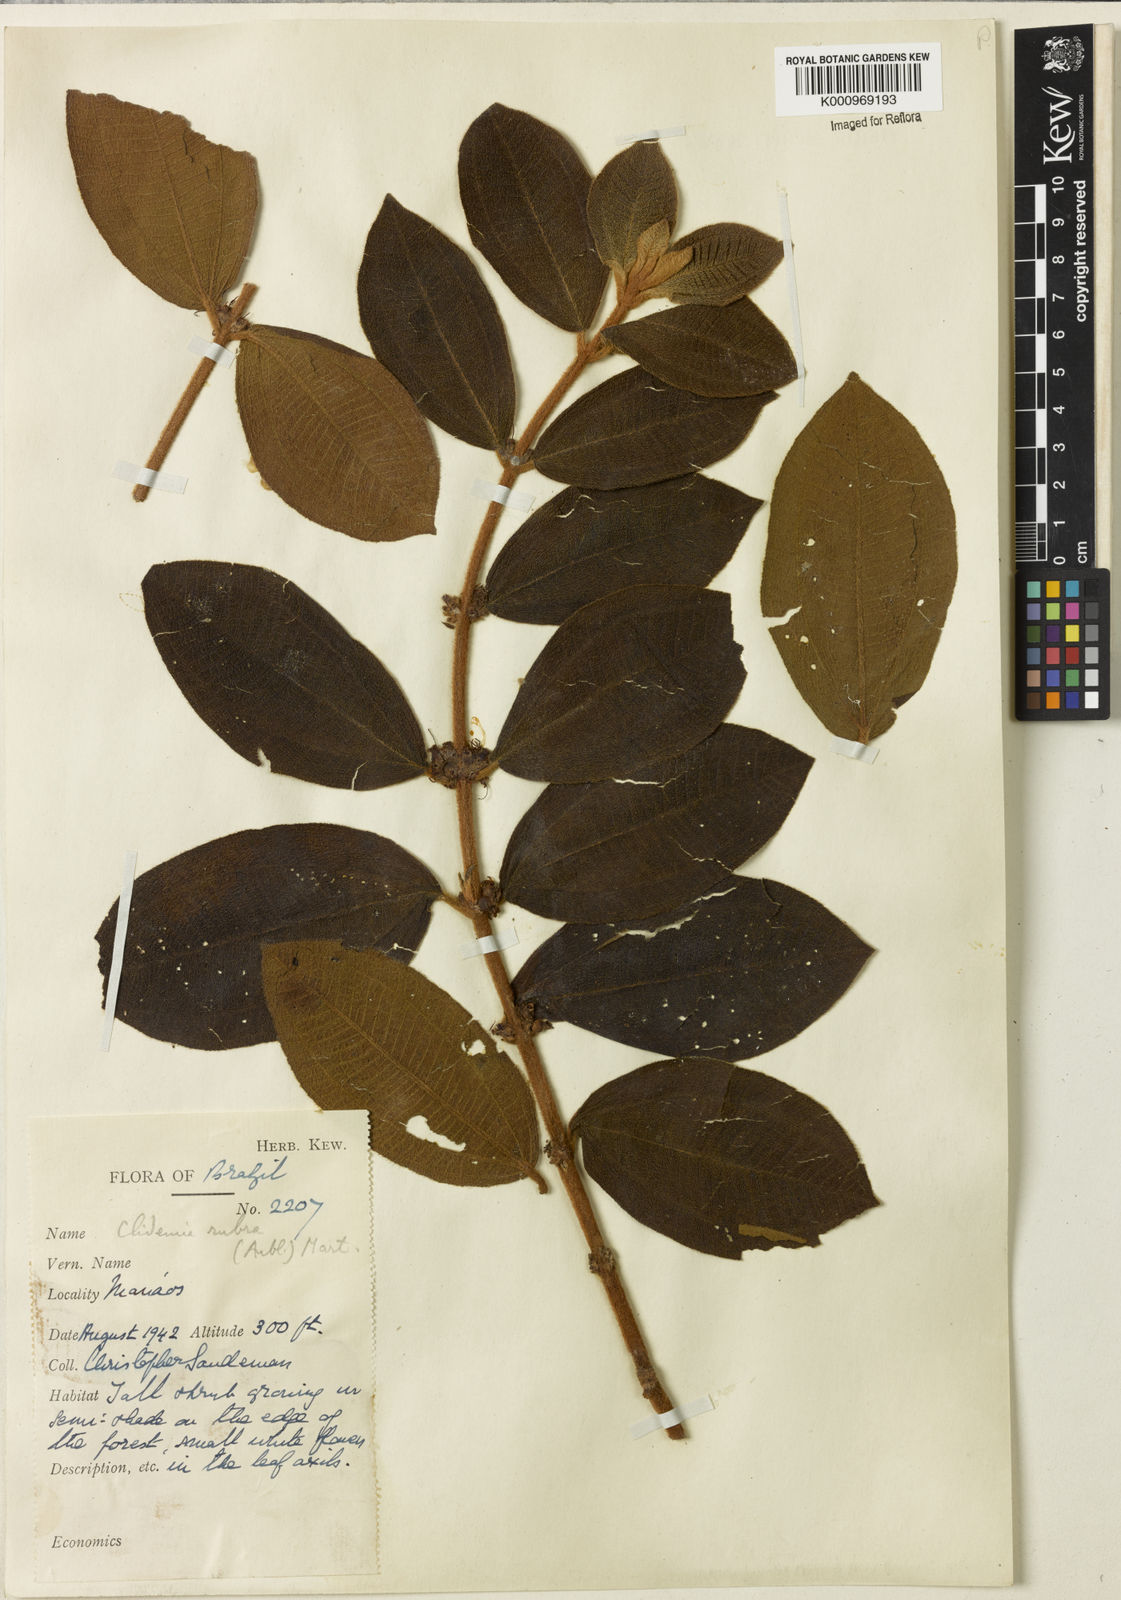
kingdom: Plantae
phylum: Tracheophyta
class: Magnoliopsida
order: Myrtales
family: Melastomataceae
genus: Miconia
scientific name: Miconia rubra
